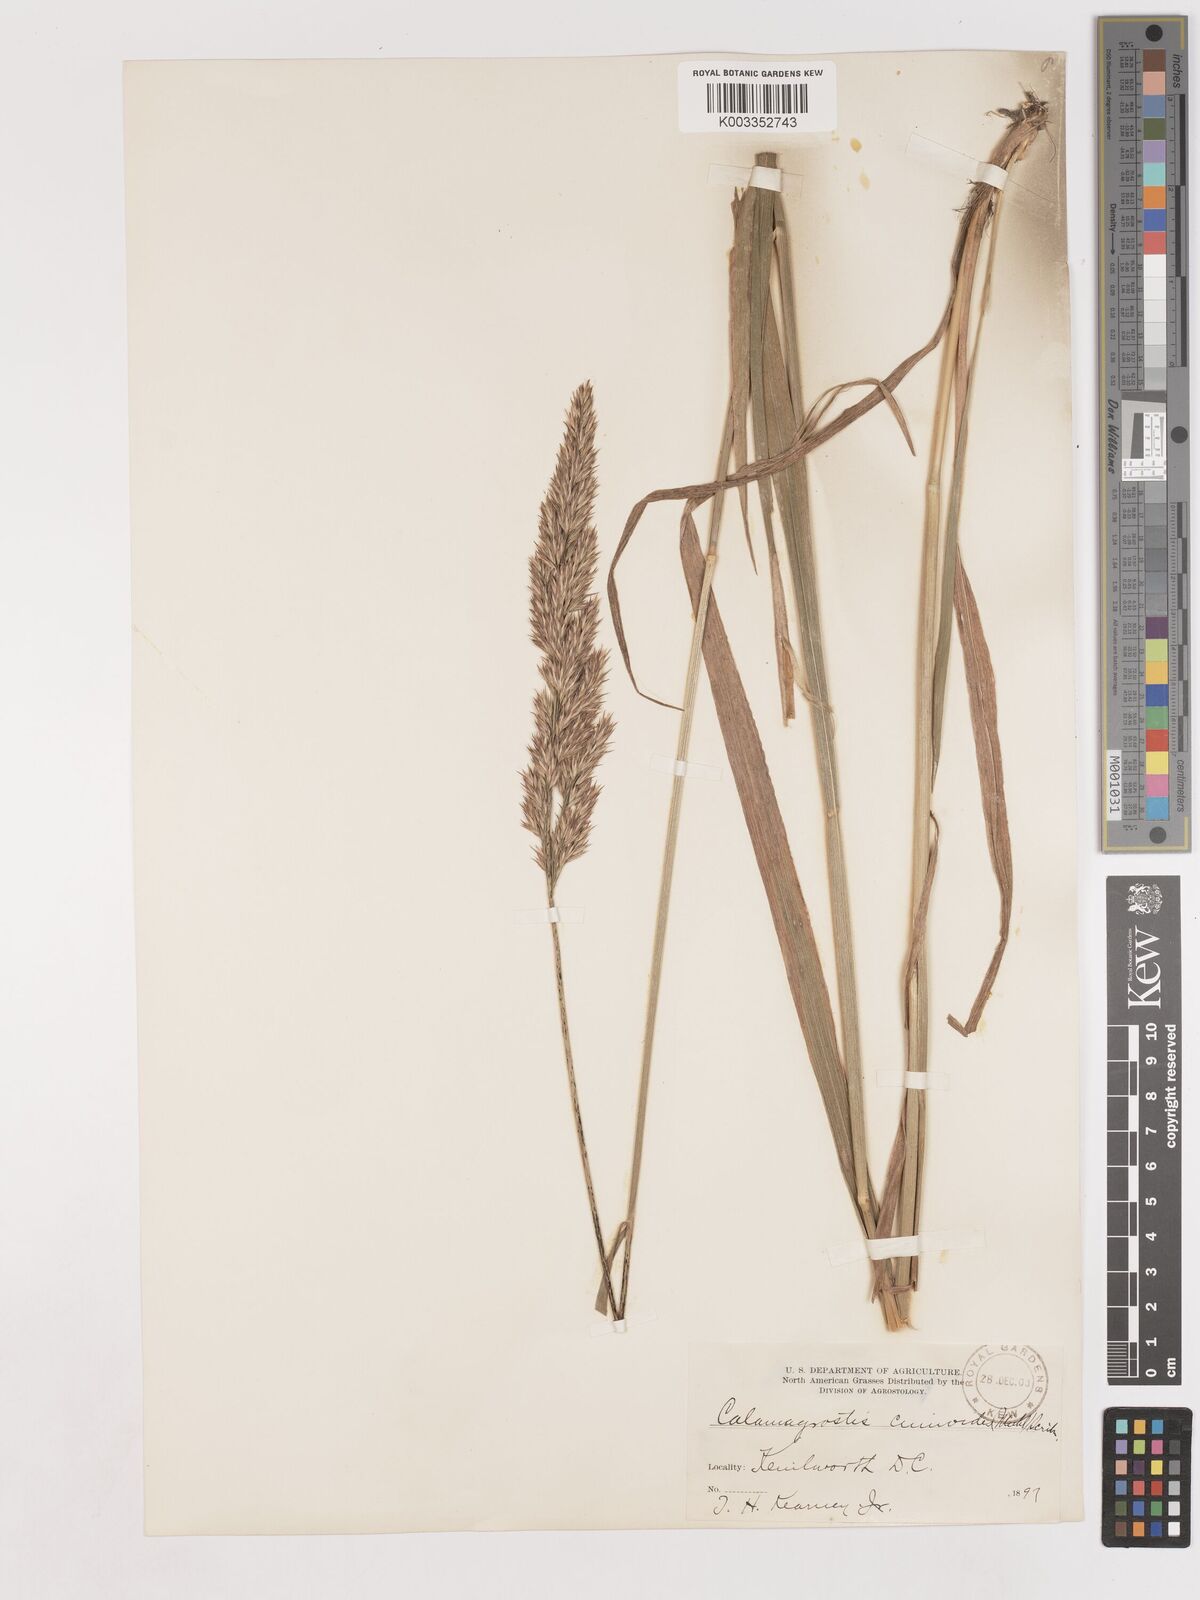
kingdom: Plantae
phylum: Tracheophyta
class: Liliopsida
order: Poales
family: Poaceae
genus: Calamagrostis
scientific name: Calamagrostis canadensis
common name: Canada bluejoint
